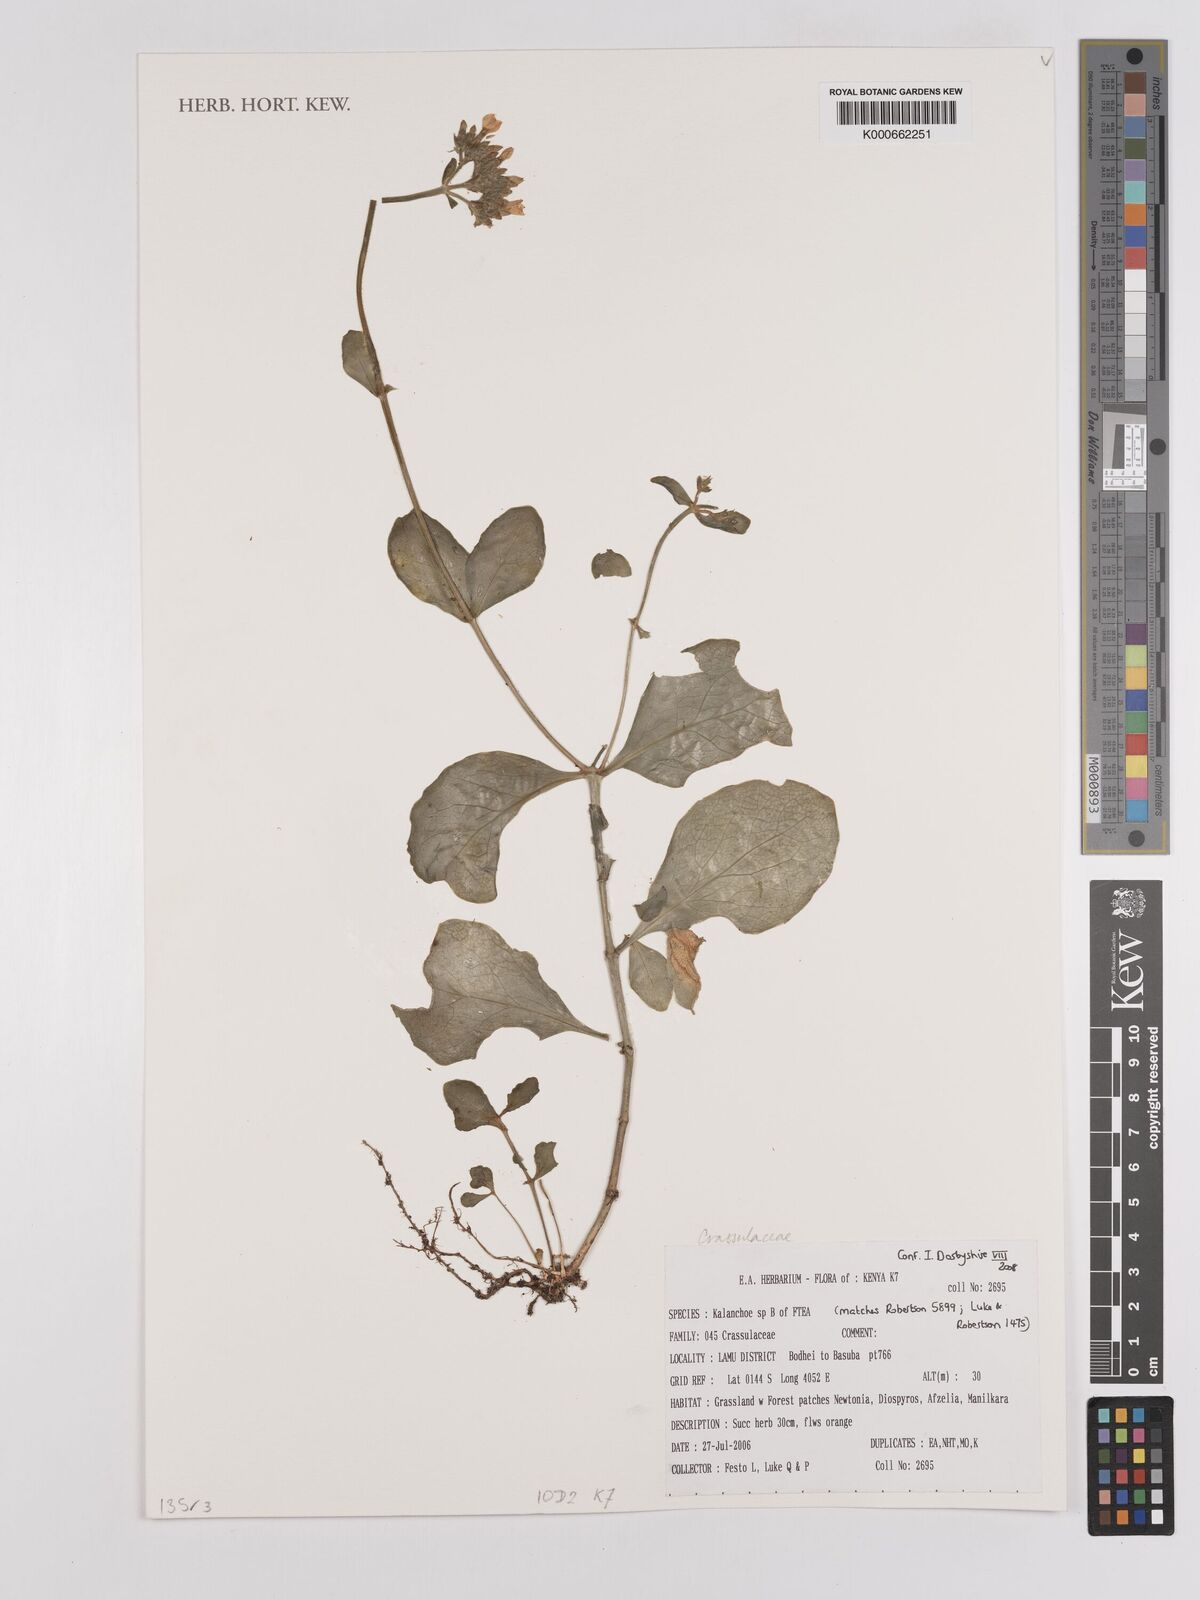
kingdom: Plantae
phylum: Tracheophyta
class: Magnoliopsida
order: Saxifragales
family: Crassulaceae
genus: Kalanchoe
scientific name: Kalanchoe
